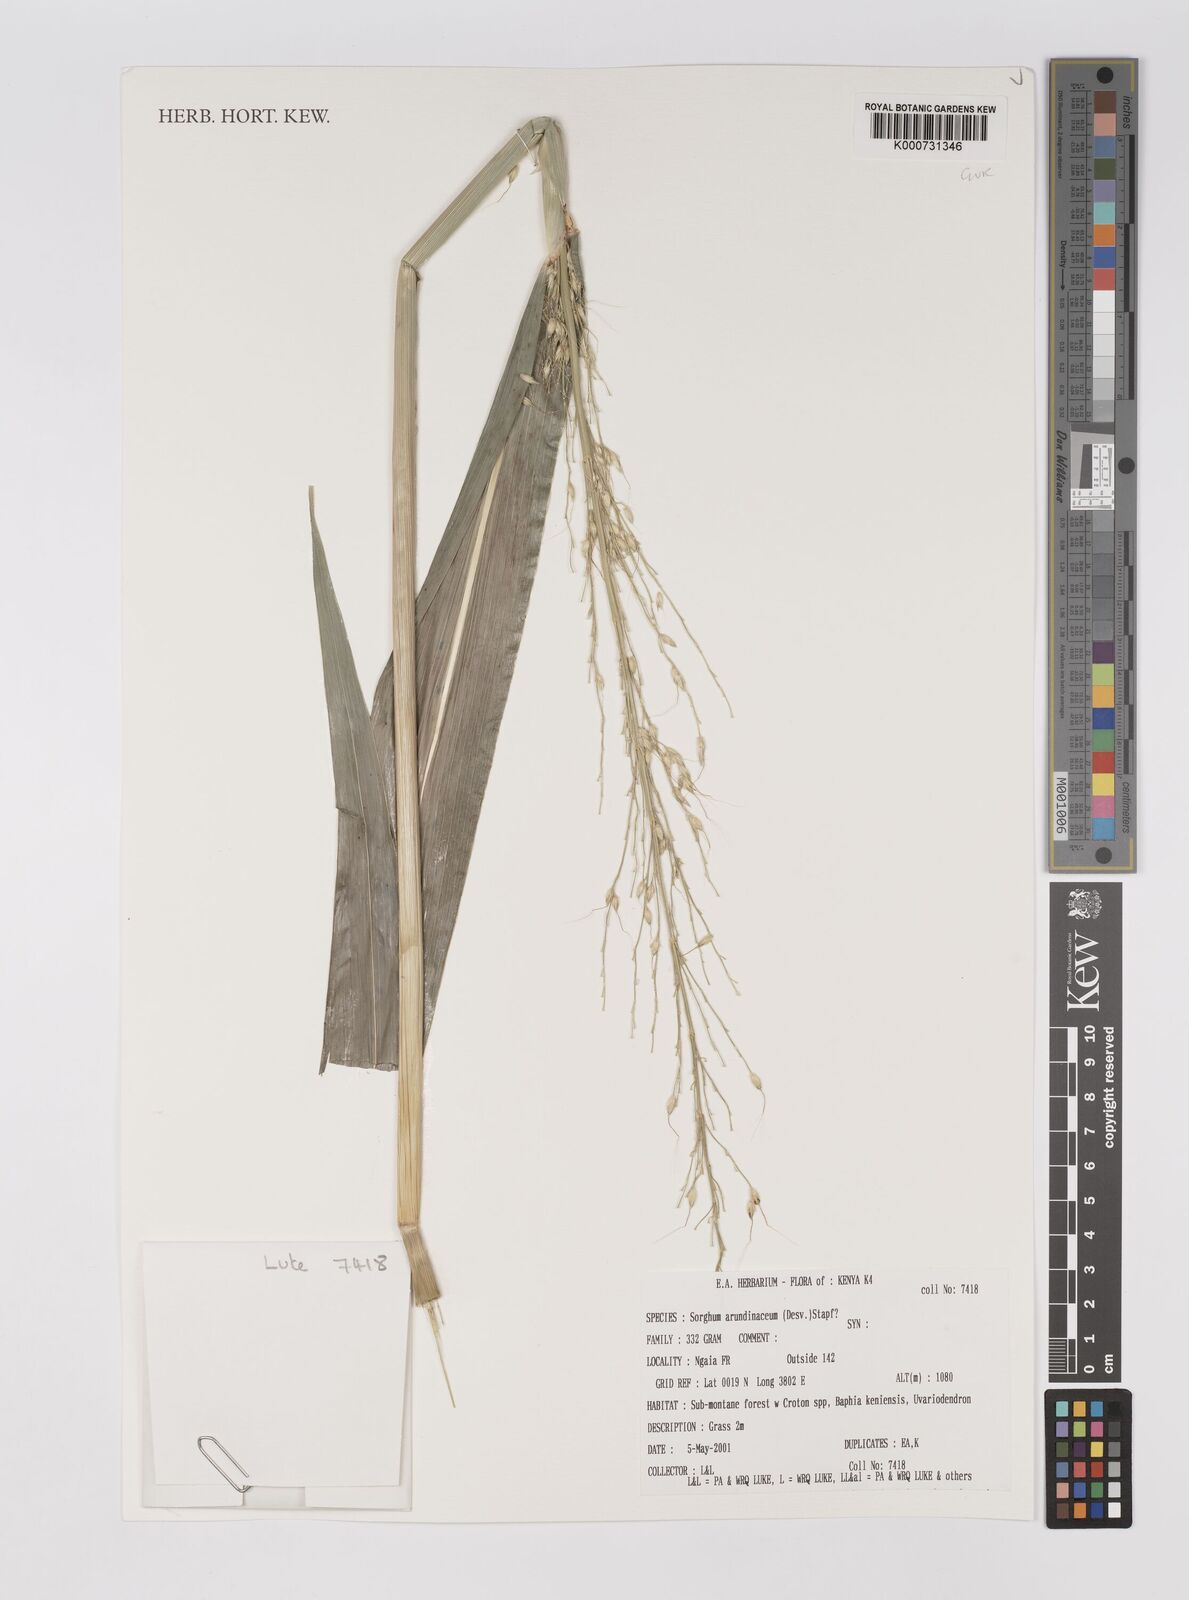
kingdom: Plantae
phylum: Tracheophyta
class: Liliopsida
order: Poales
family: Poaceae
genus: Sorghum
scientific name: Sorghum arundinaceum
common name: Sorghum
